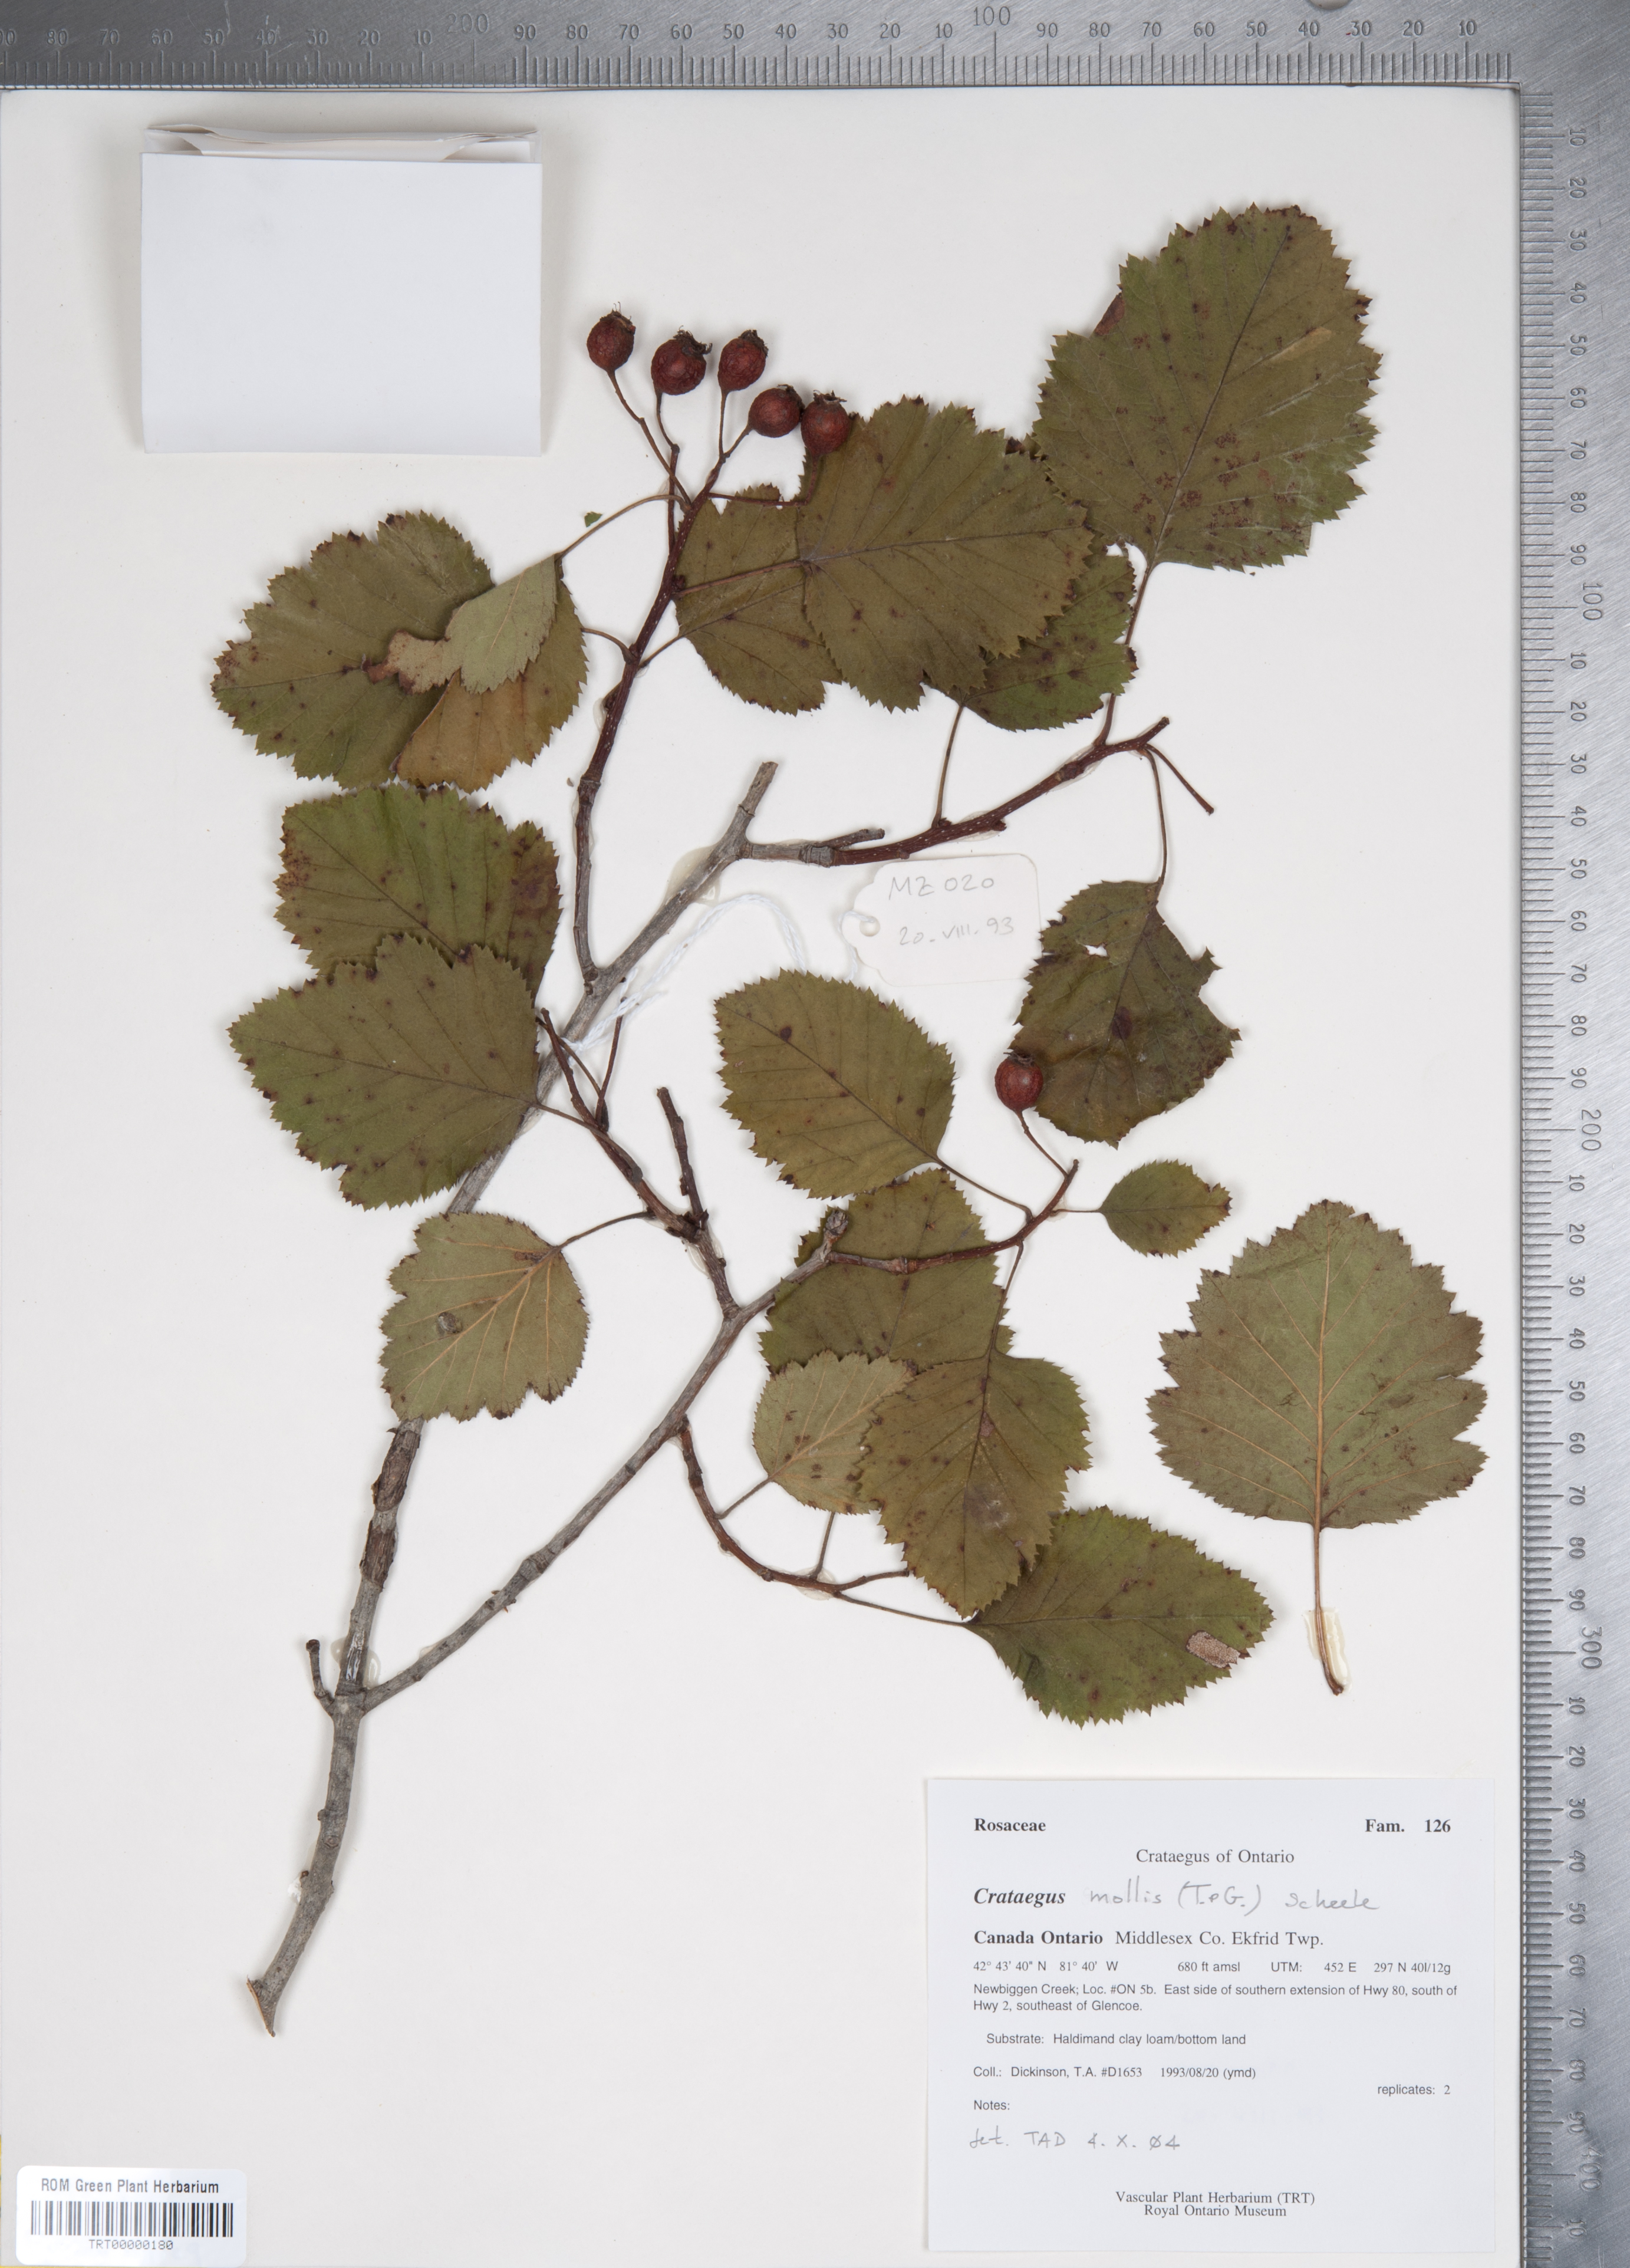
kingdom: Plantae
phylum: Tracheophyta
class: Magnoliopsida
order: Rosales
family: Rosaceae
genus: Crataegus
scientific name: Crataegus mollis
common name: Downy hawthorn
